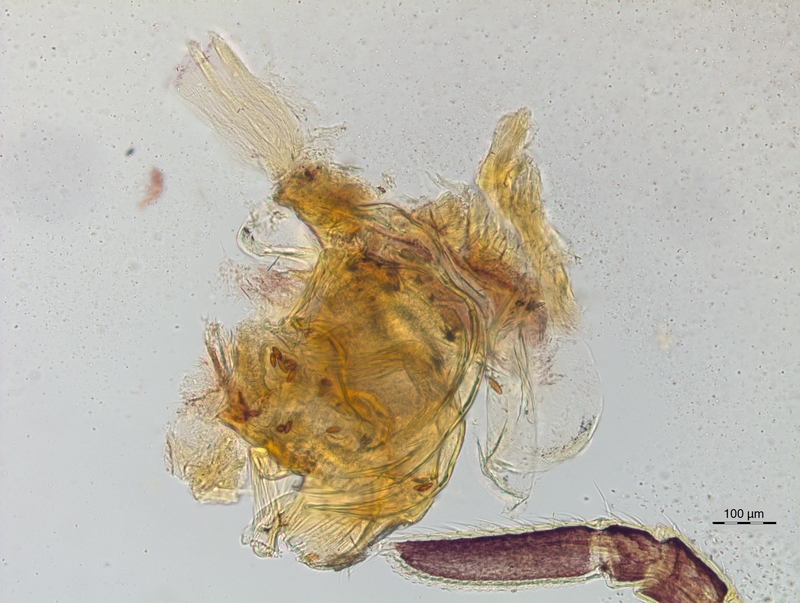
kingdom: Animalia
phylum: Arthropoda
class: Diplopoda
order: Chordeumatida
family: Craspedosomatidae
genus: Craspedosoma
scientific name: Craspedosoma rawlinsii
